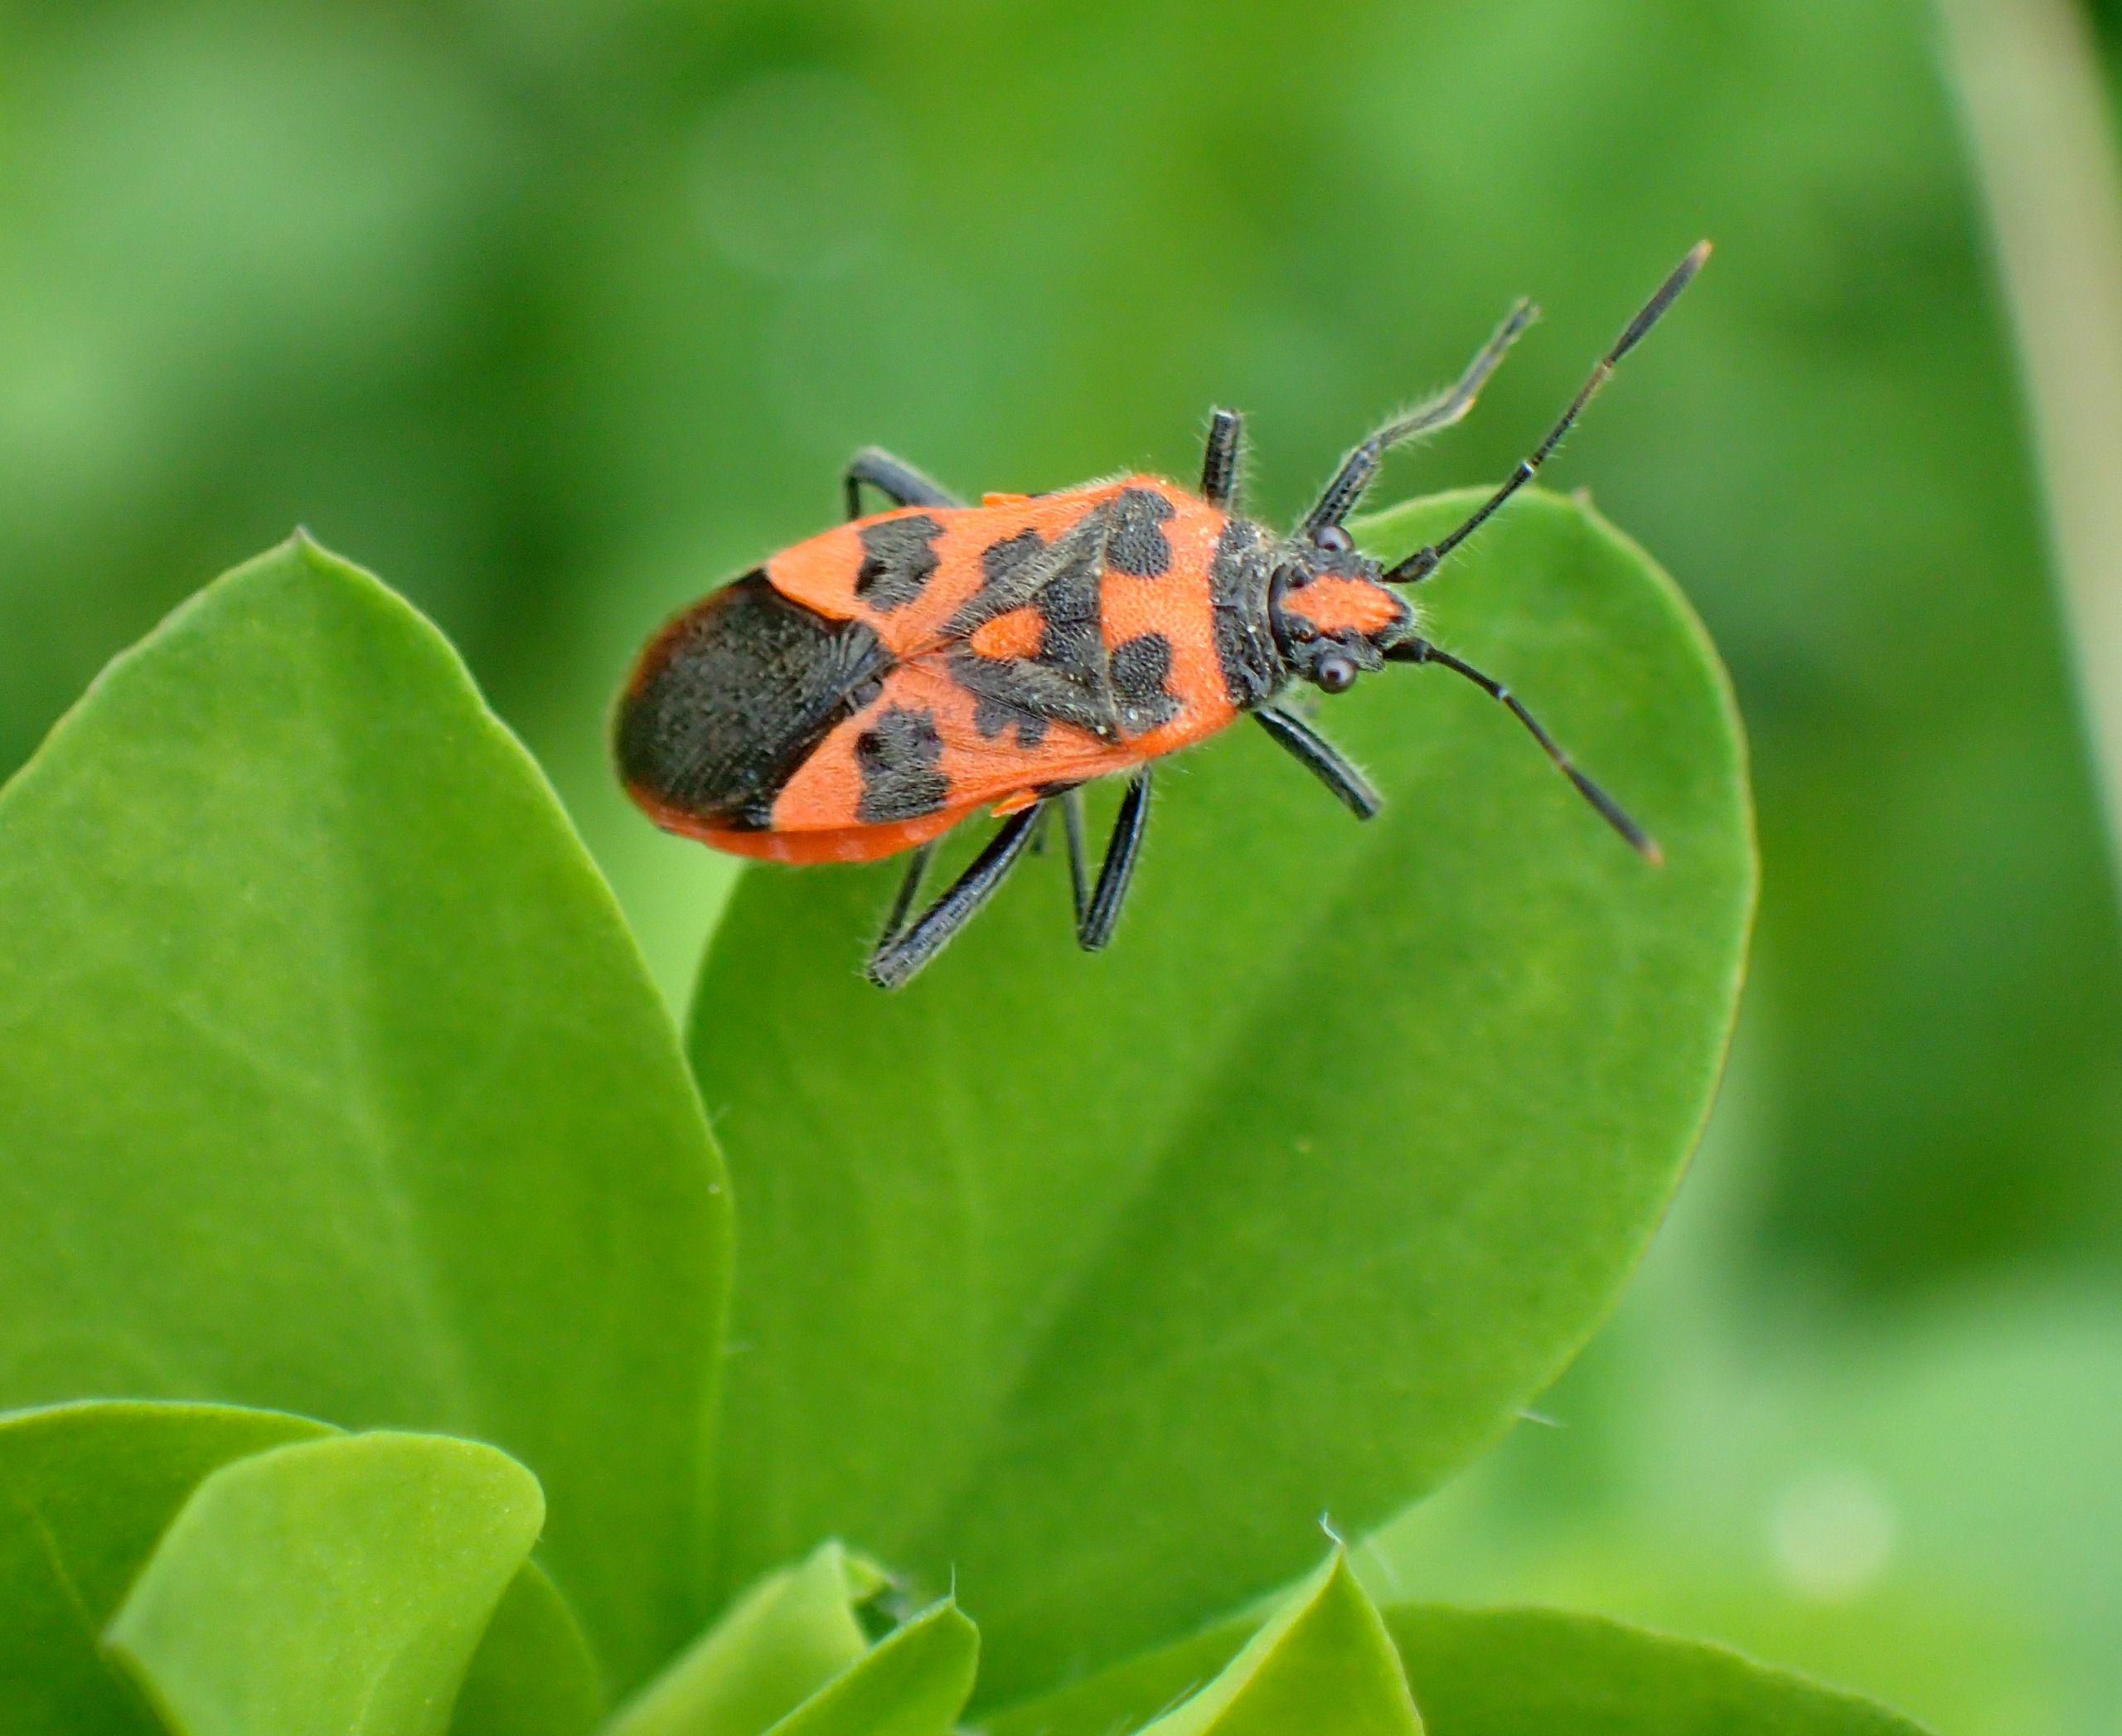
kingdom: Animalia
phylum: Arthropoda
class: Insecta
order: Hemiptera
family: Rhopalidae
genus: Corizus
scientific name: Corizus hyoscyami
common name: Rød kanttæge
